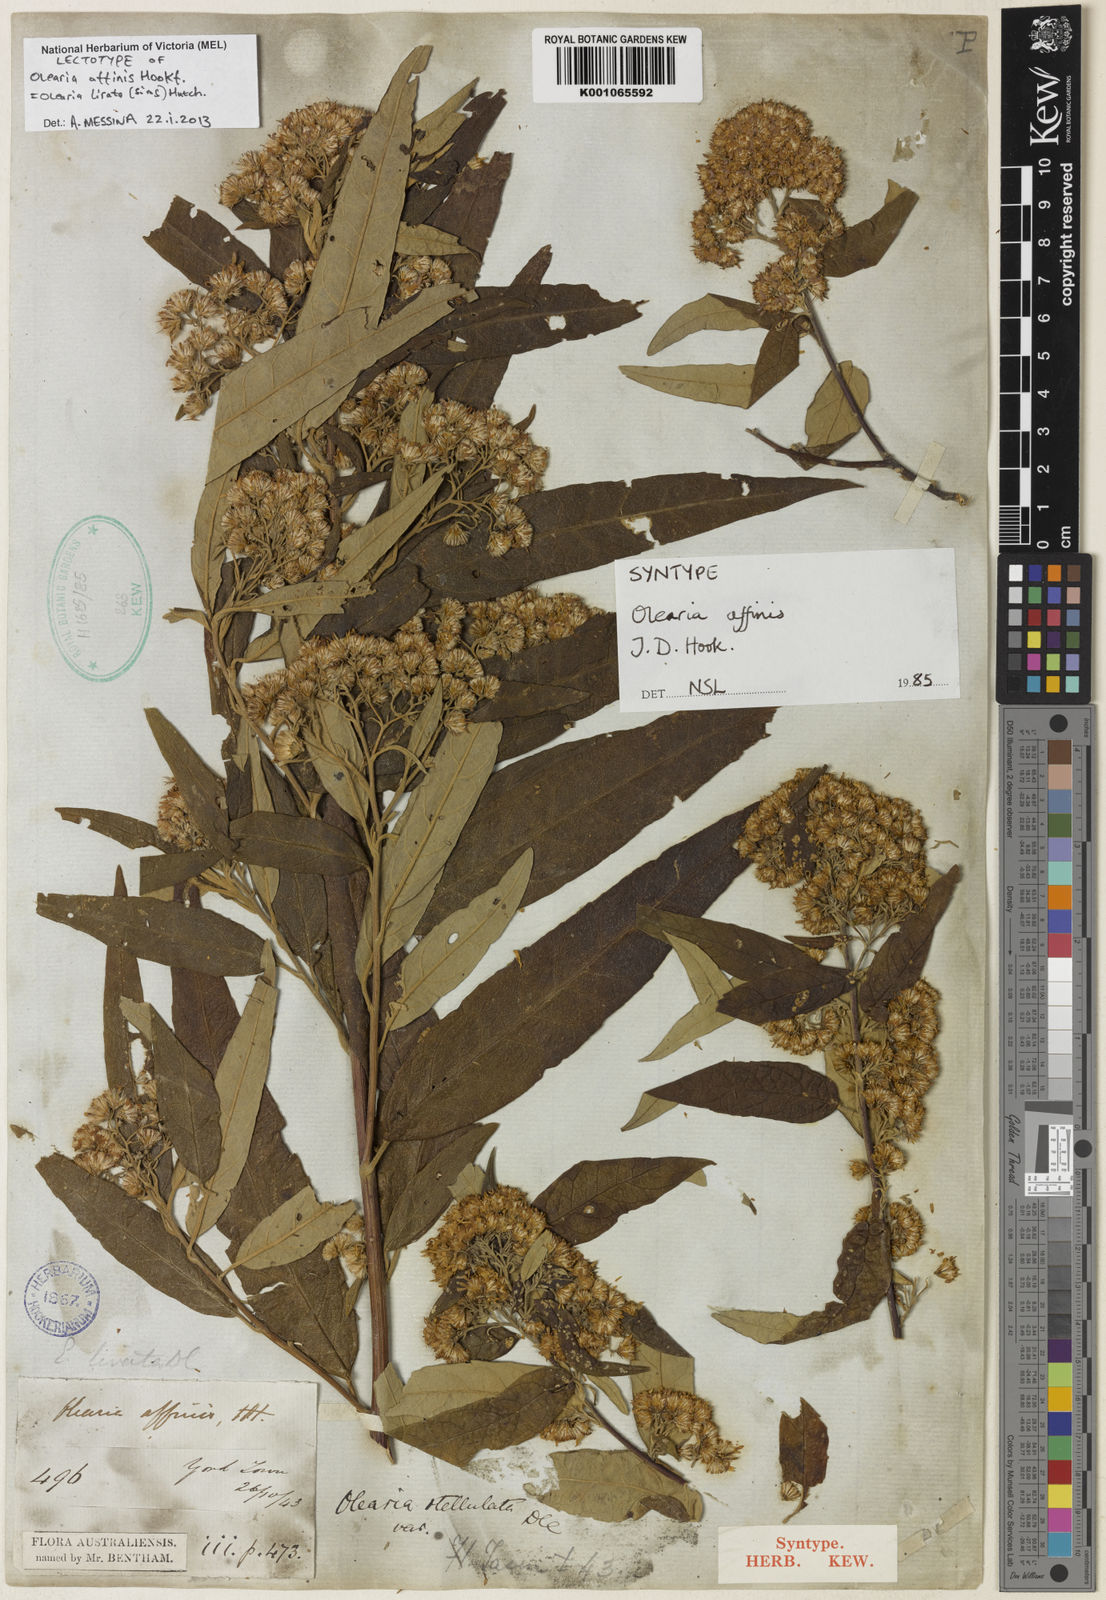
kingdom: Plantae
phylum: Tracheophyta
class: Magnoliopsida
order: Asterales
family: Asteraceae
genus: Olearia
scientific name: Olearia lirata
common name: Dusty daisybush
